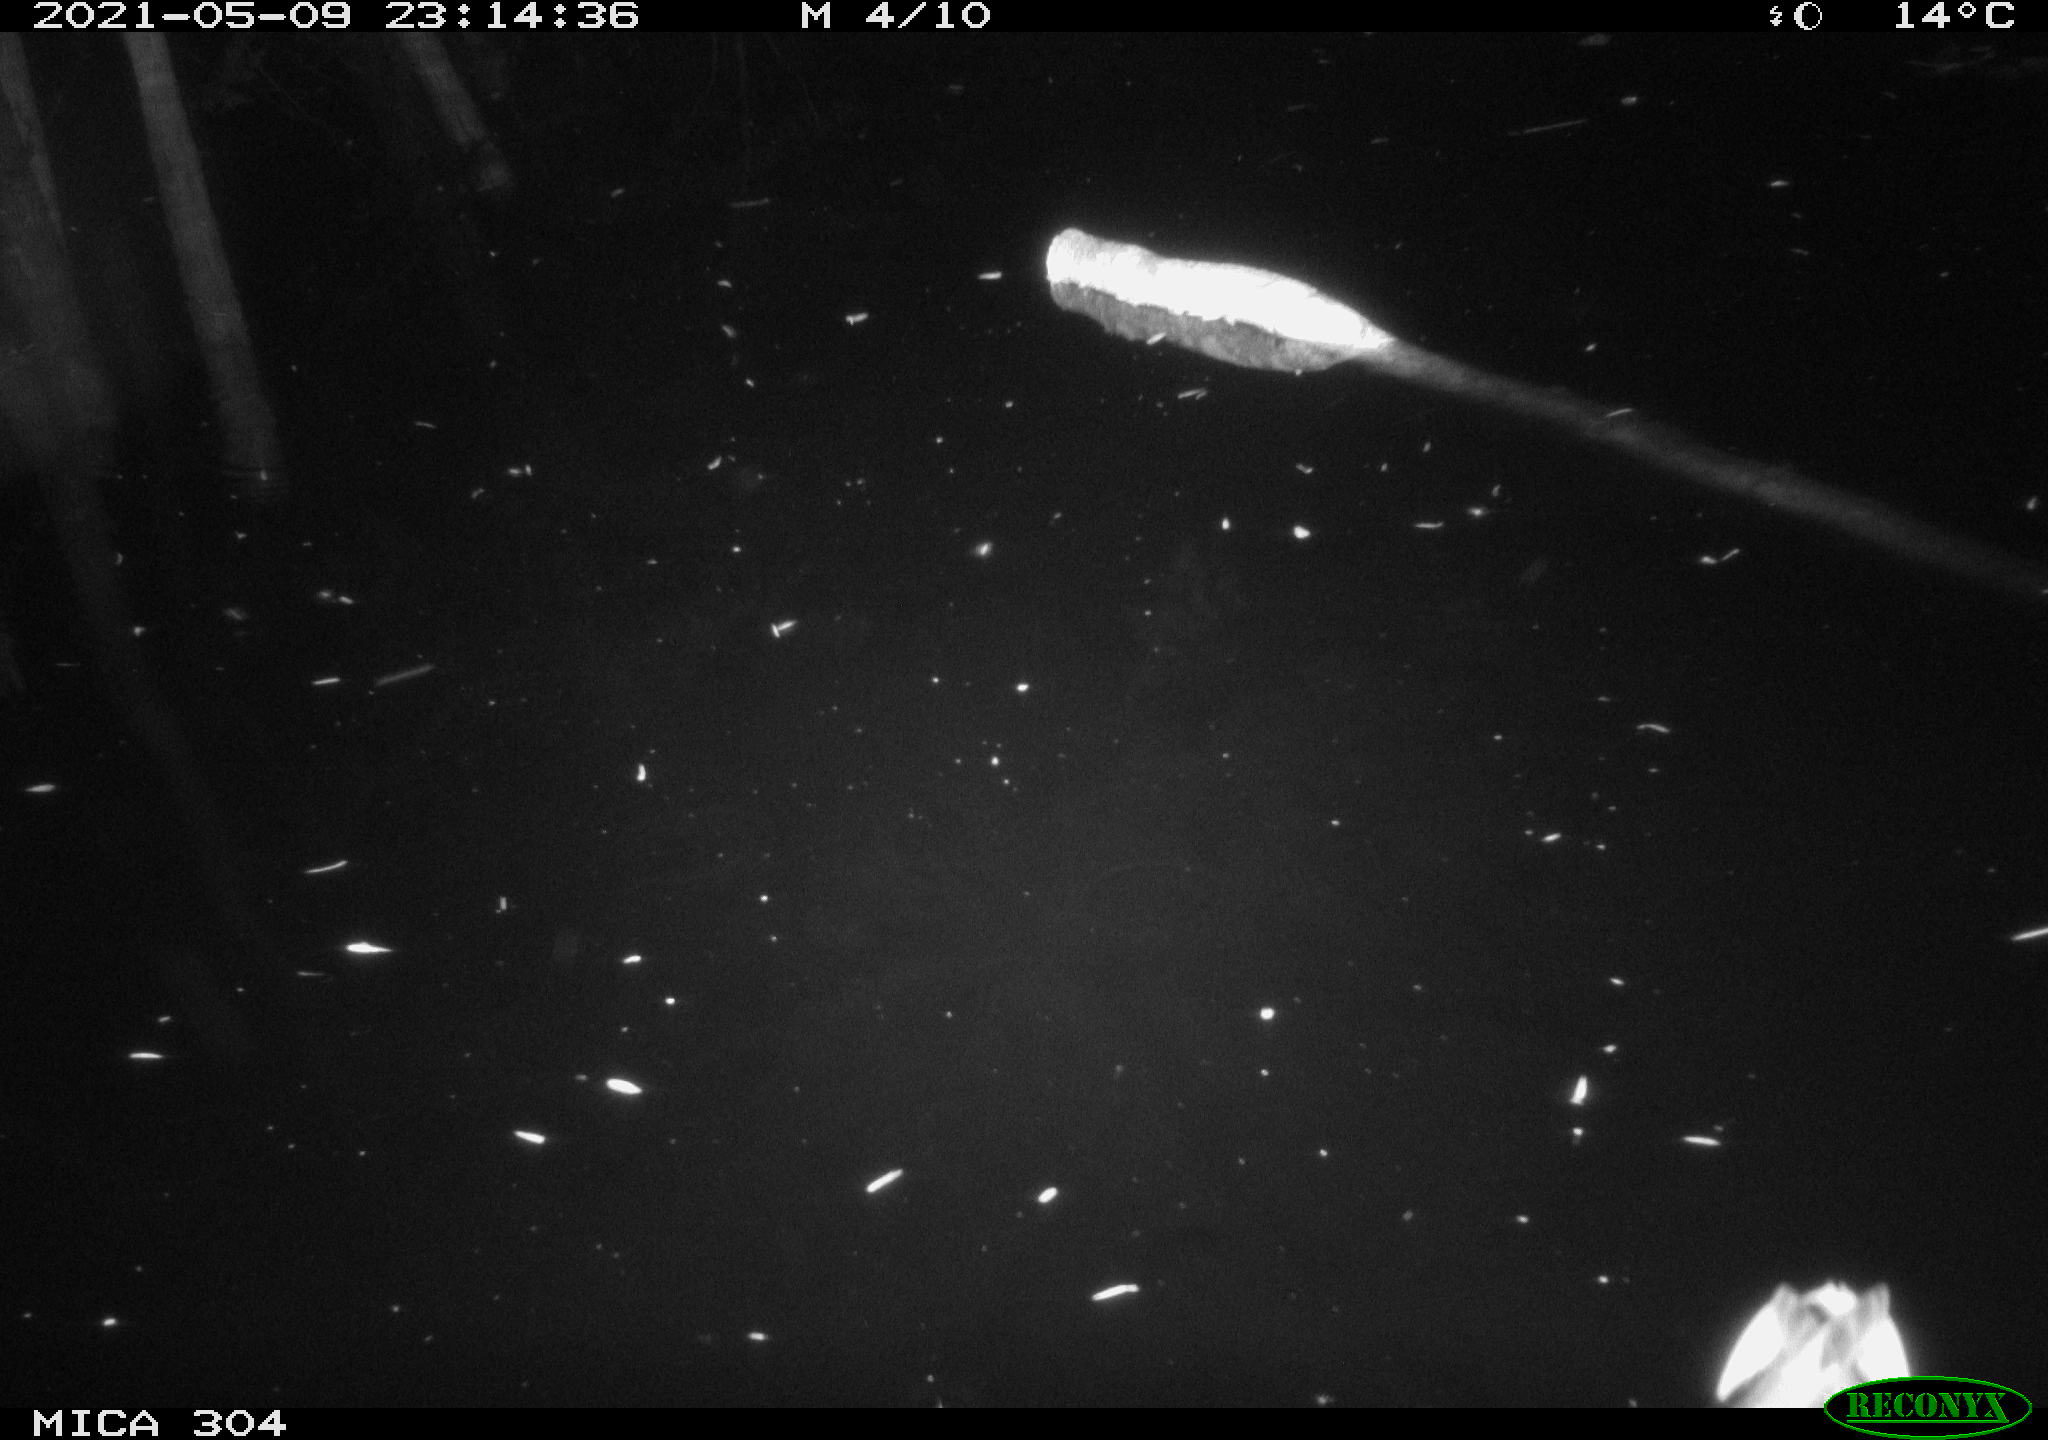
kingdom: Animalia
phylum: Chordata
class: Aves
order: Anseriformes
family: Anatidae
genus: Anas
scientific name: Anas platyrhynchos
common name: Mallard
